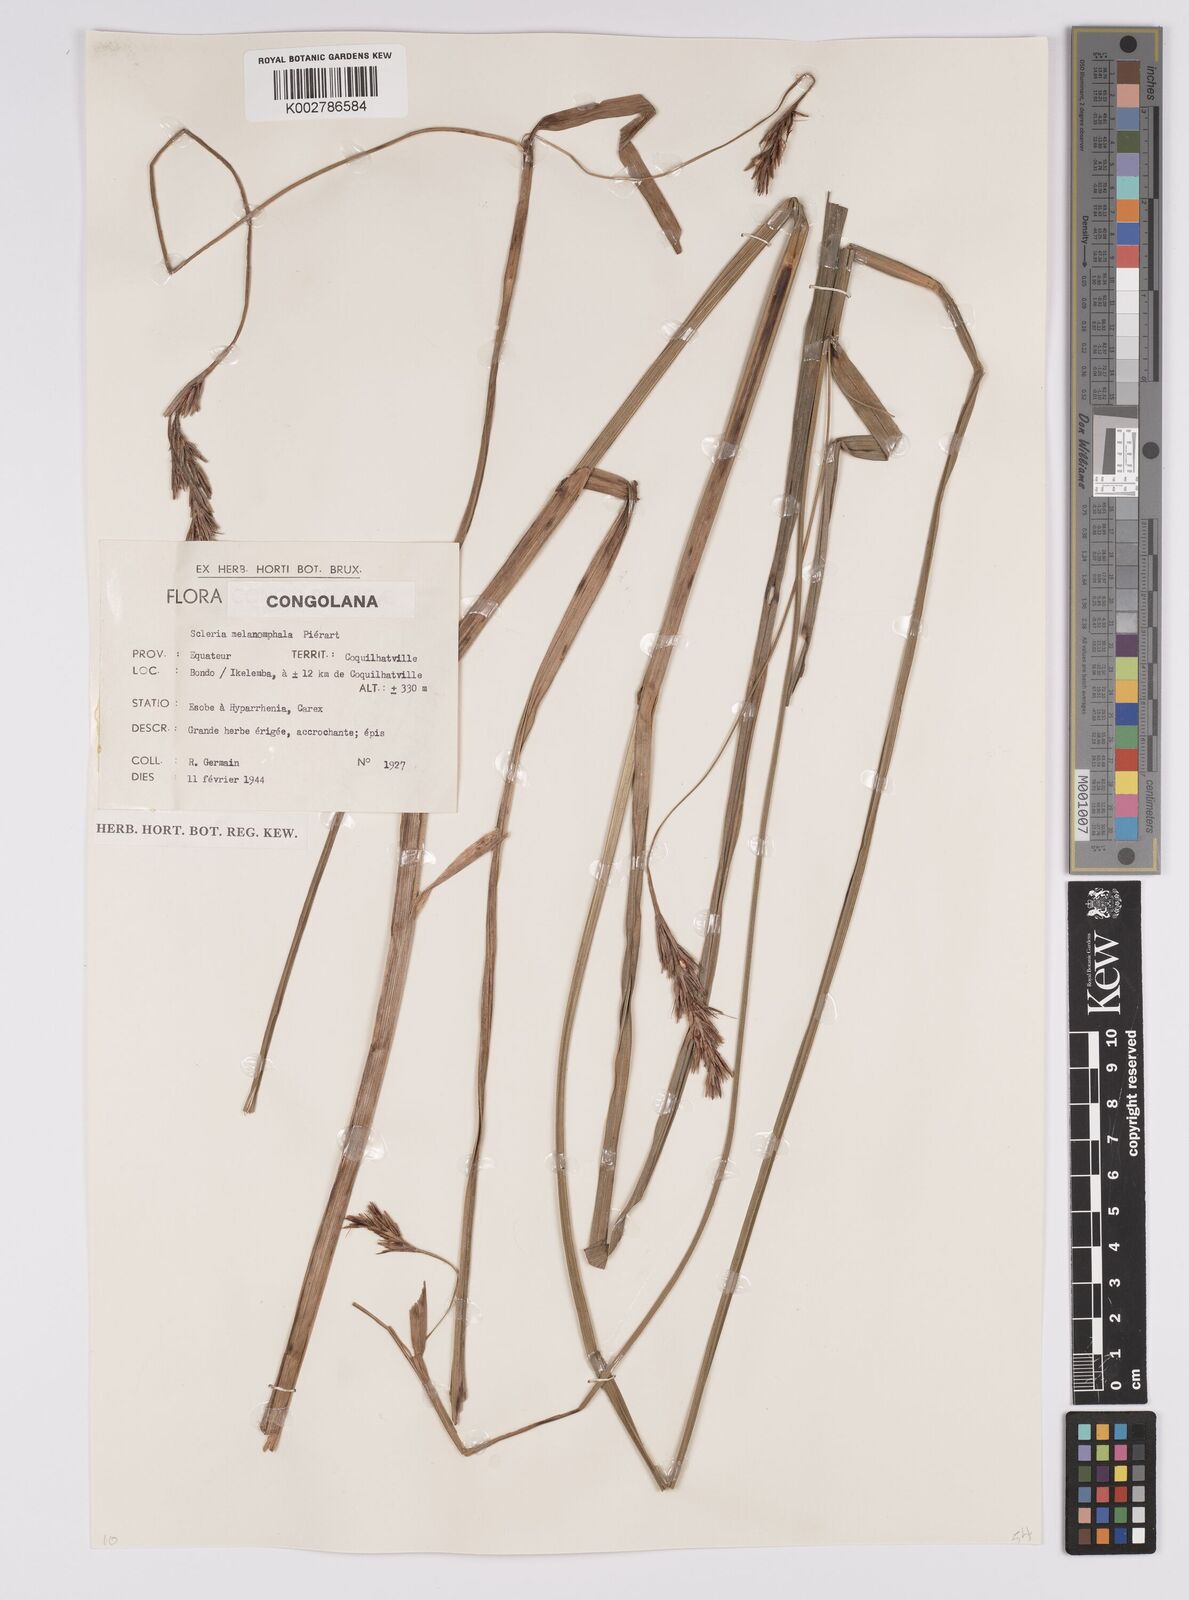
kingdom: Plantae
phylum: Tracheophyta
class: Liliopsida
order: Poales
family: Cyperaceae
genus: Scleria
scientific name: Scleria melanomphala
